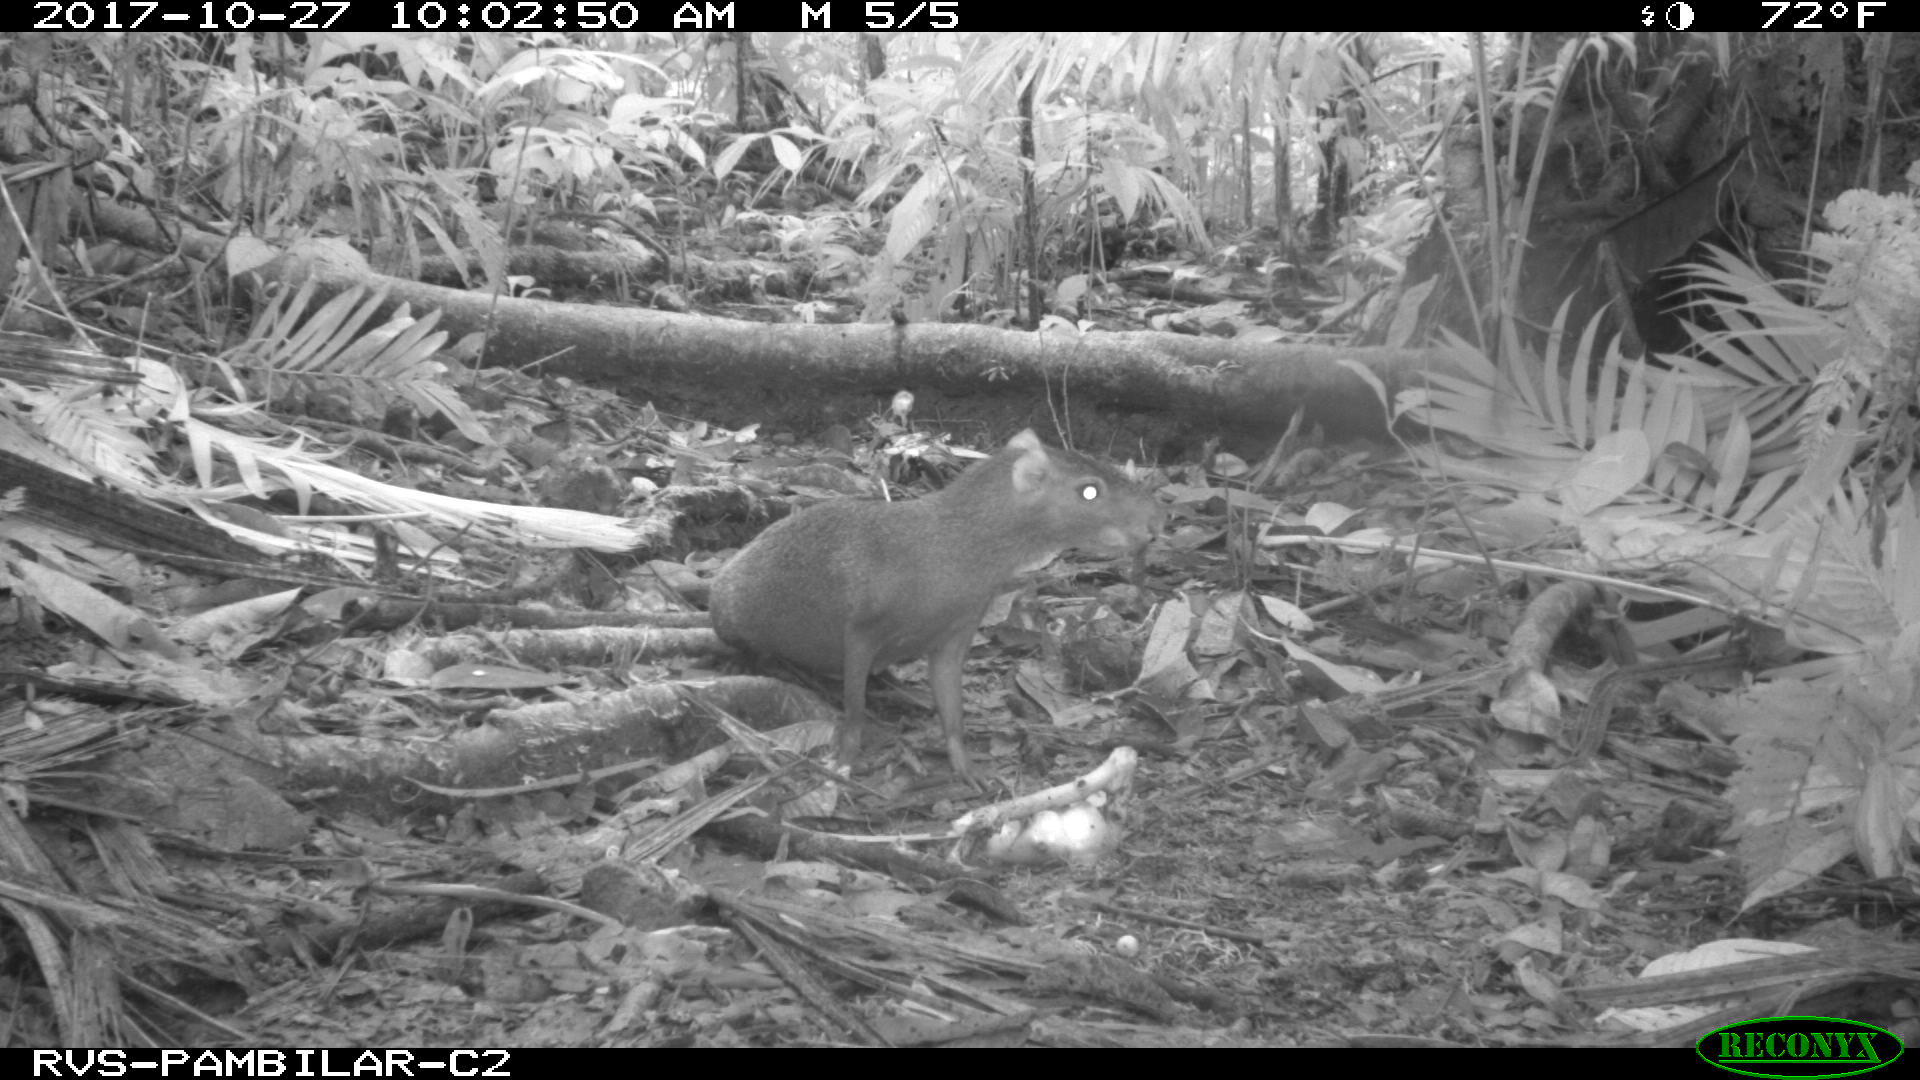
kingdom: Animalia
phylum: Chordata
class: Mammalia
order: Rodentia
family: Dasyproctidae
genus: Dasyprocta
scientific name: Dasyprocta punctata
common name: Central american agouti
